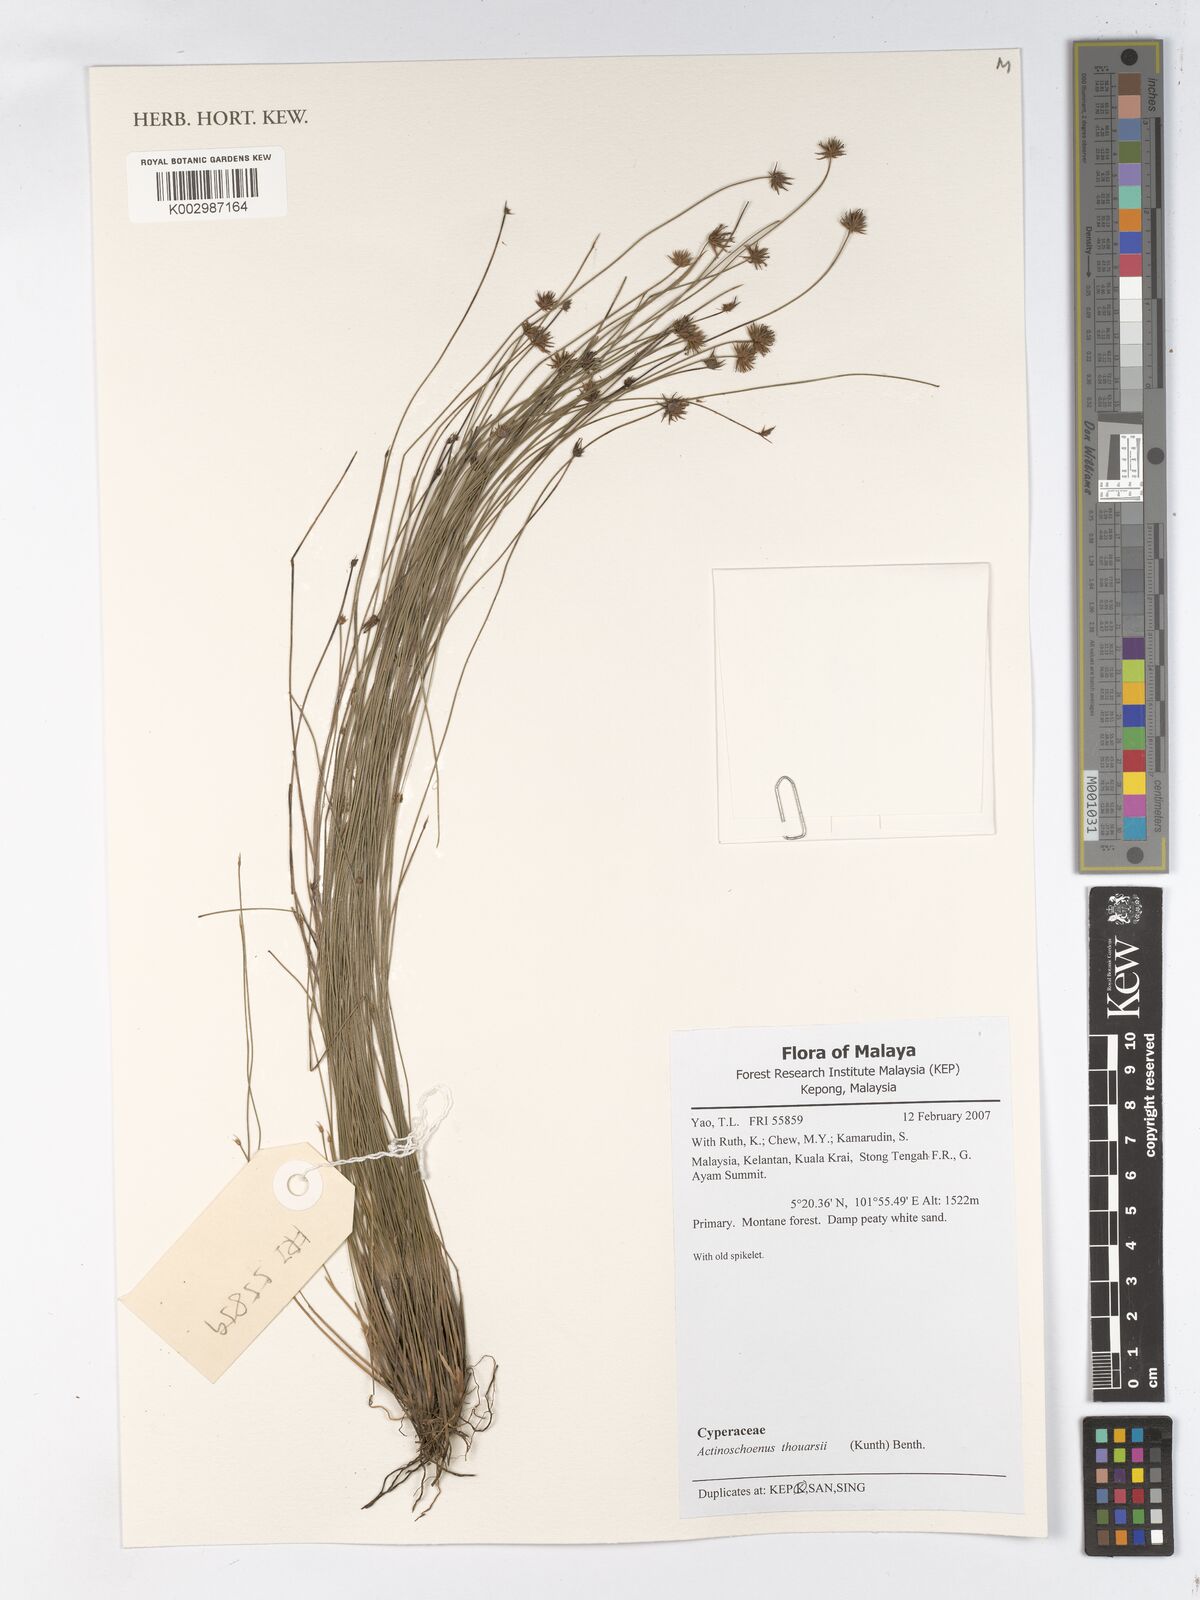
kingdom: Plantae
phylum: Tracheophyta
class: Liliopsida
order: Poales
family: Cyperaceae
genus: Actinoschoenus
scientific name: Actinoschoenus aphyllus
